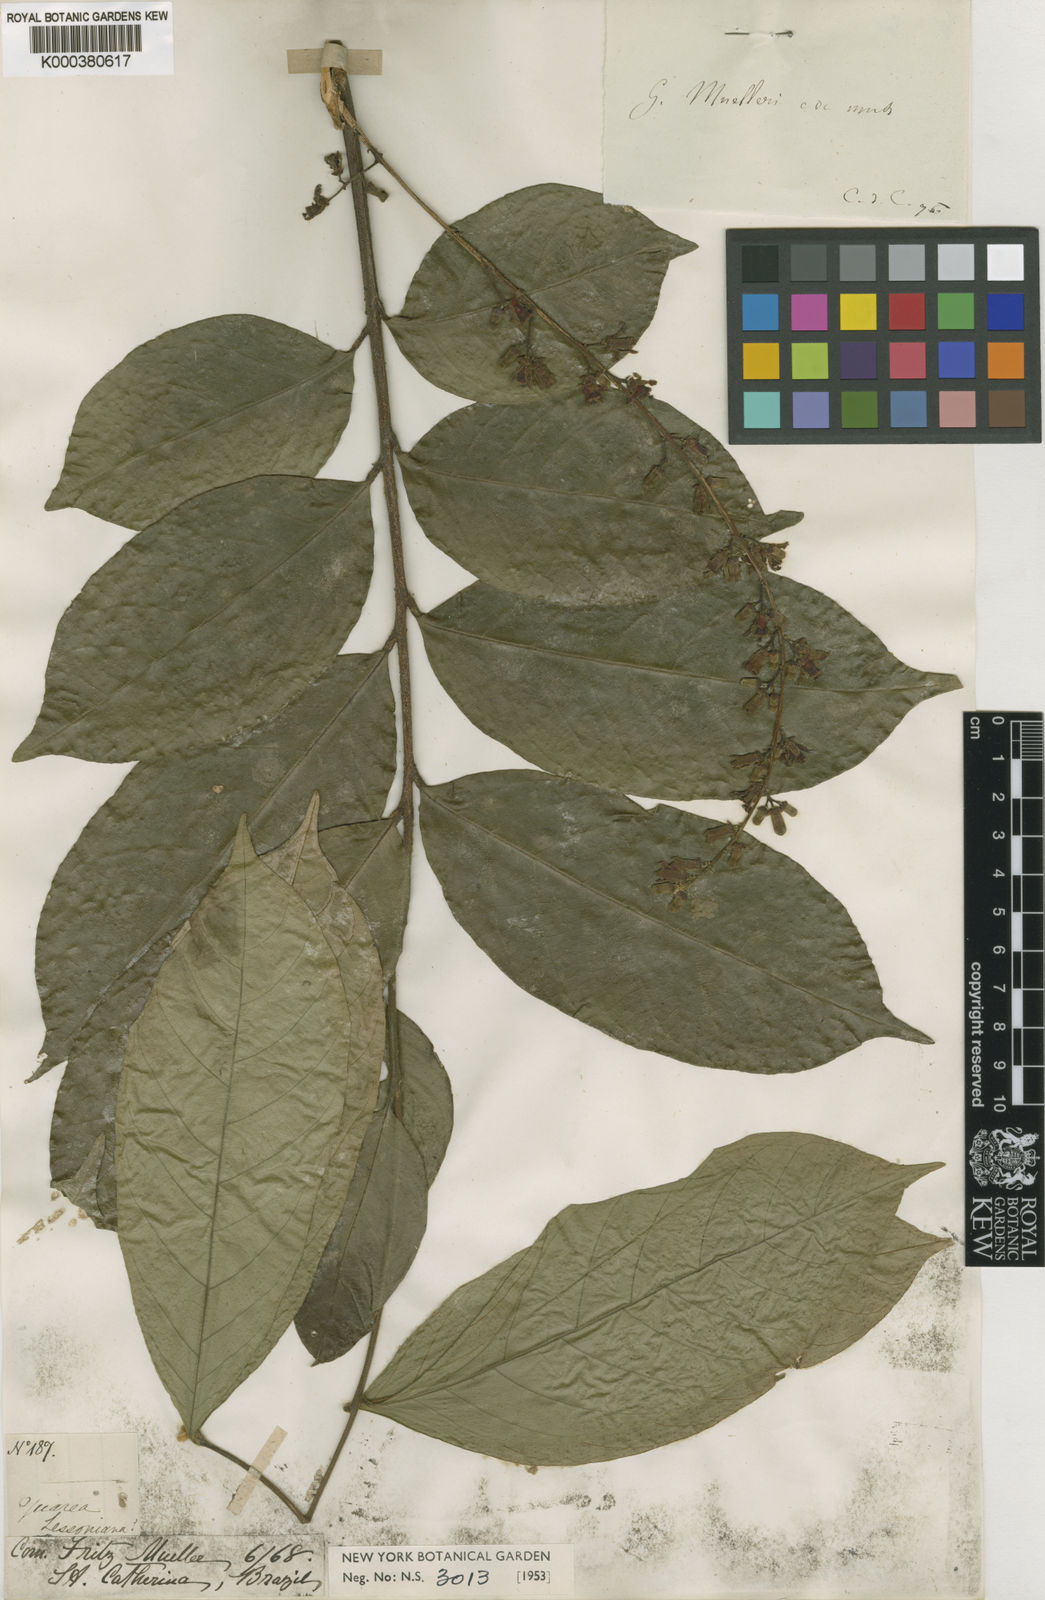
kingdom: Plantae
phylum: Tracheophyta
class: Magnoliopsida
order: Sapindales
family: Meliaceae
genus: Guarea
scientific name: Guarea macrophylla
